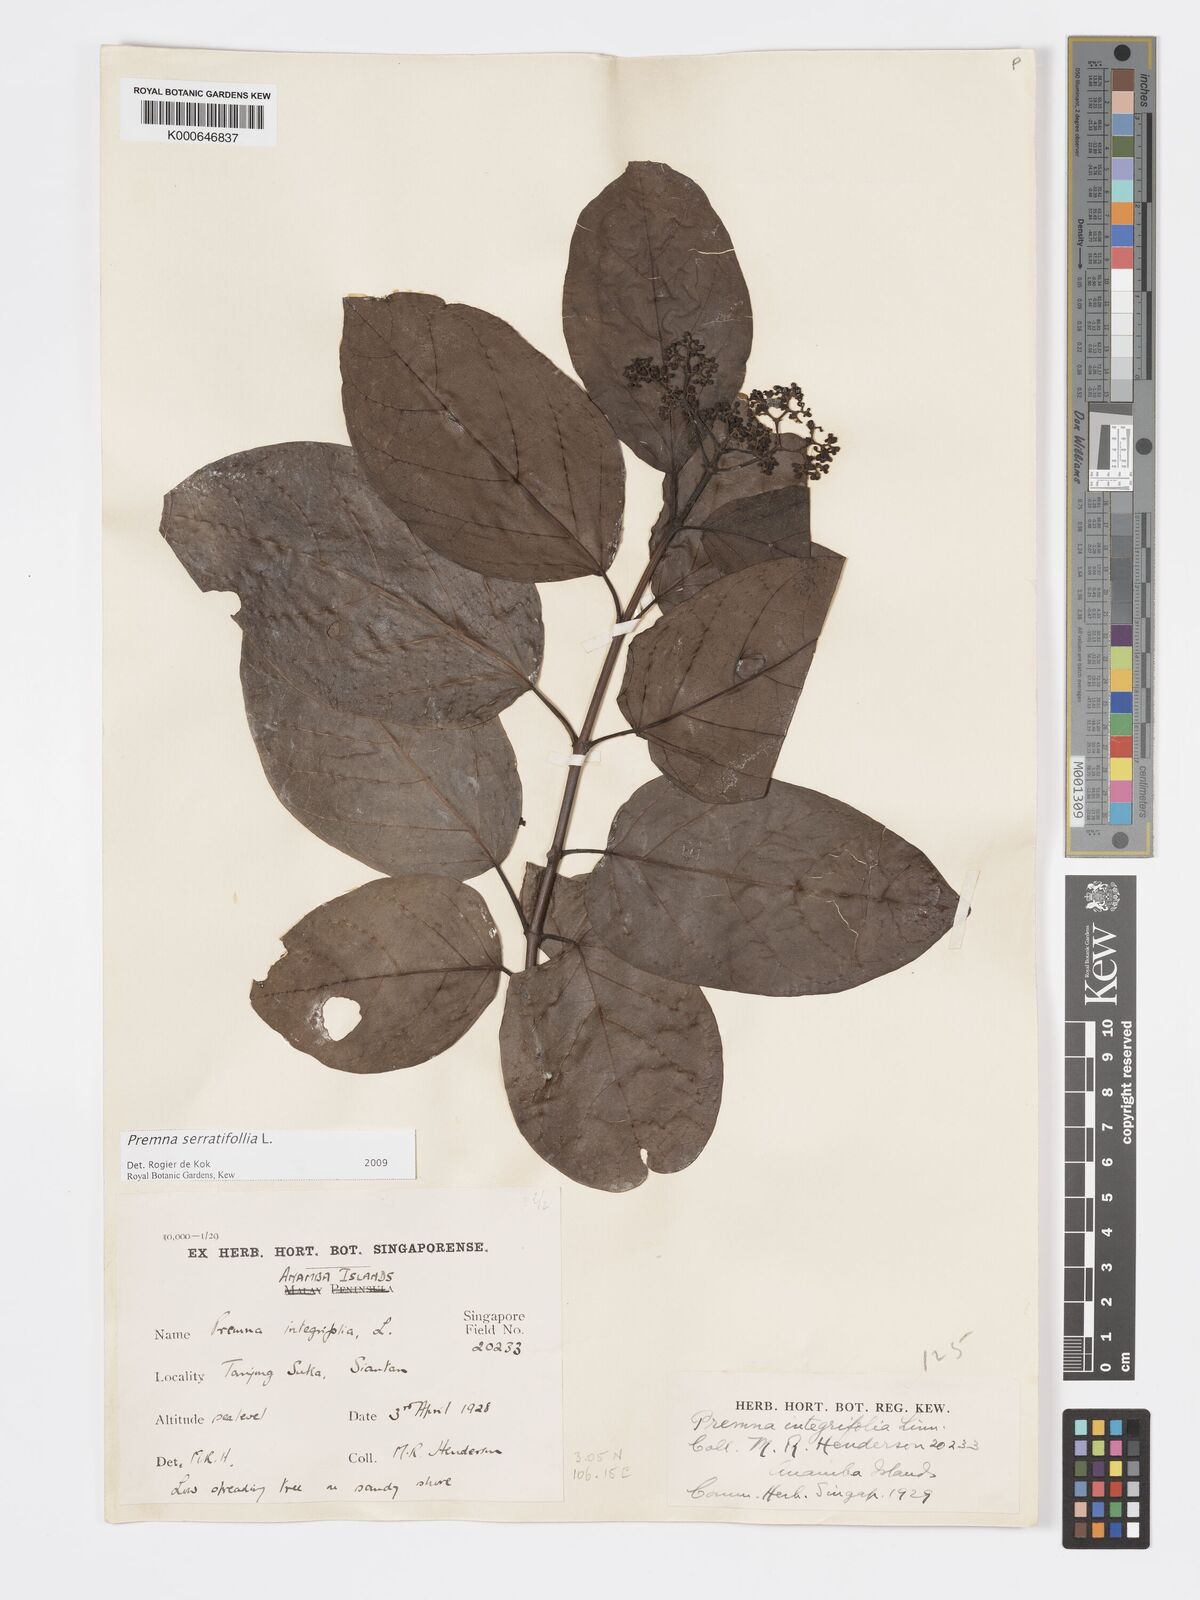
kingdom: Plantae
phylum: Tracheophyta
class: Magnoliopsida
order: Lamiales
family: Lamiaceae
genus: Premna
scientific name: Premna serratifolia
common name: Bastard guelder
